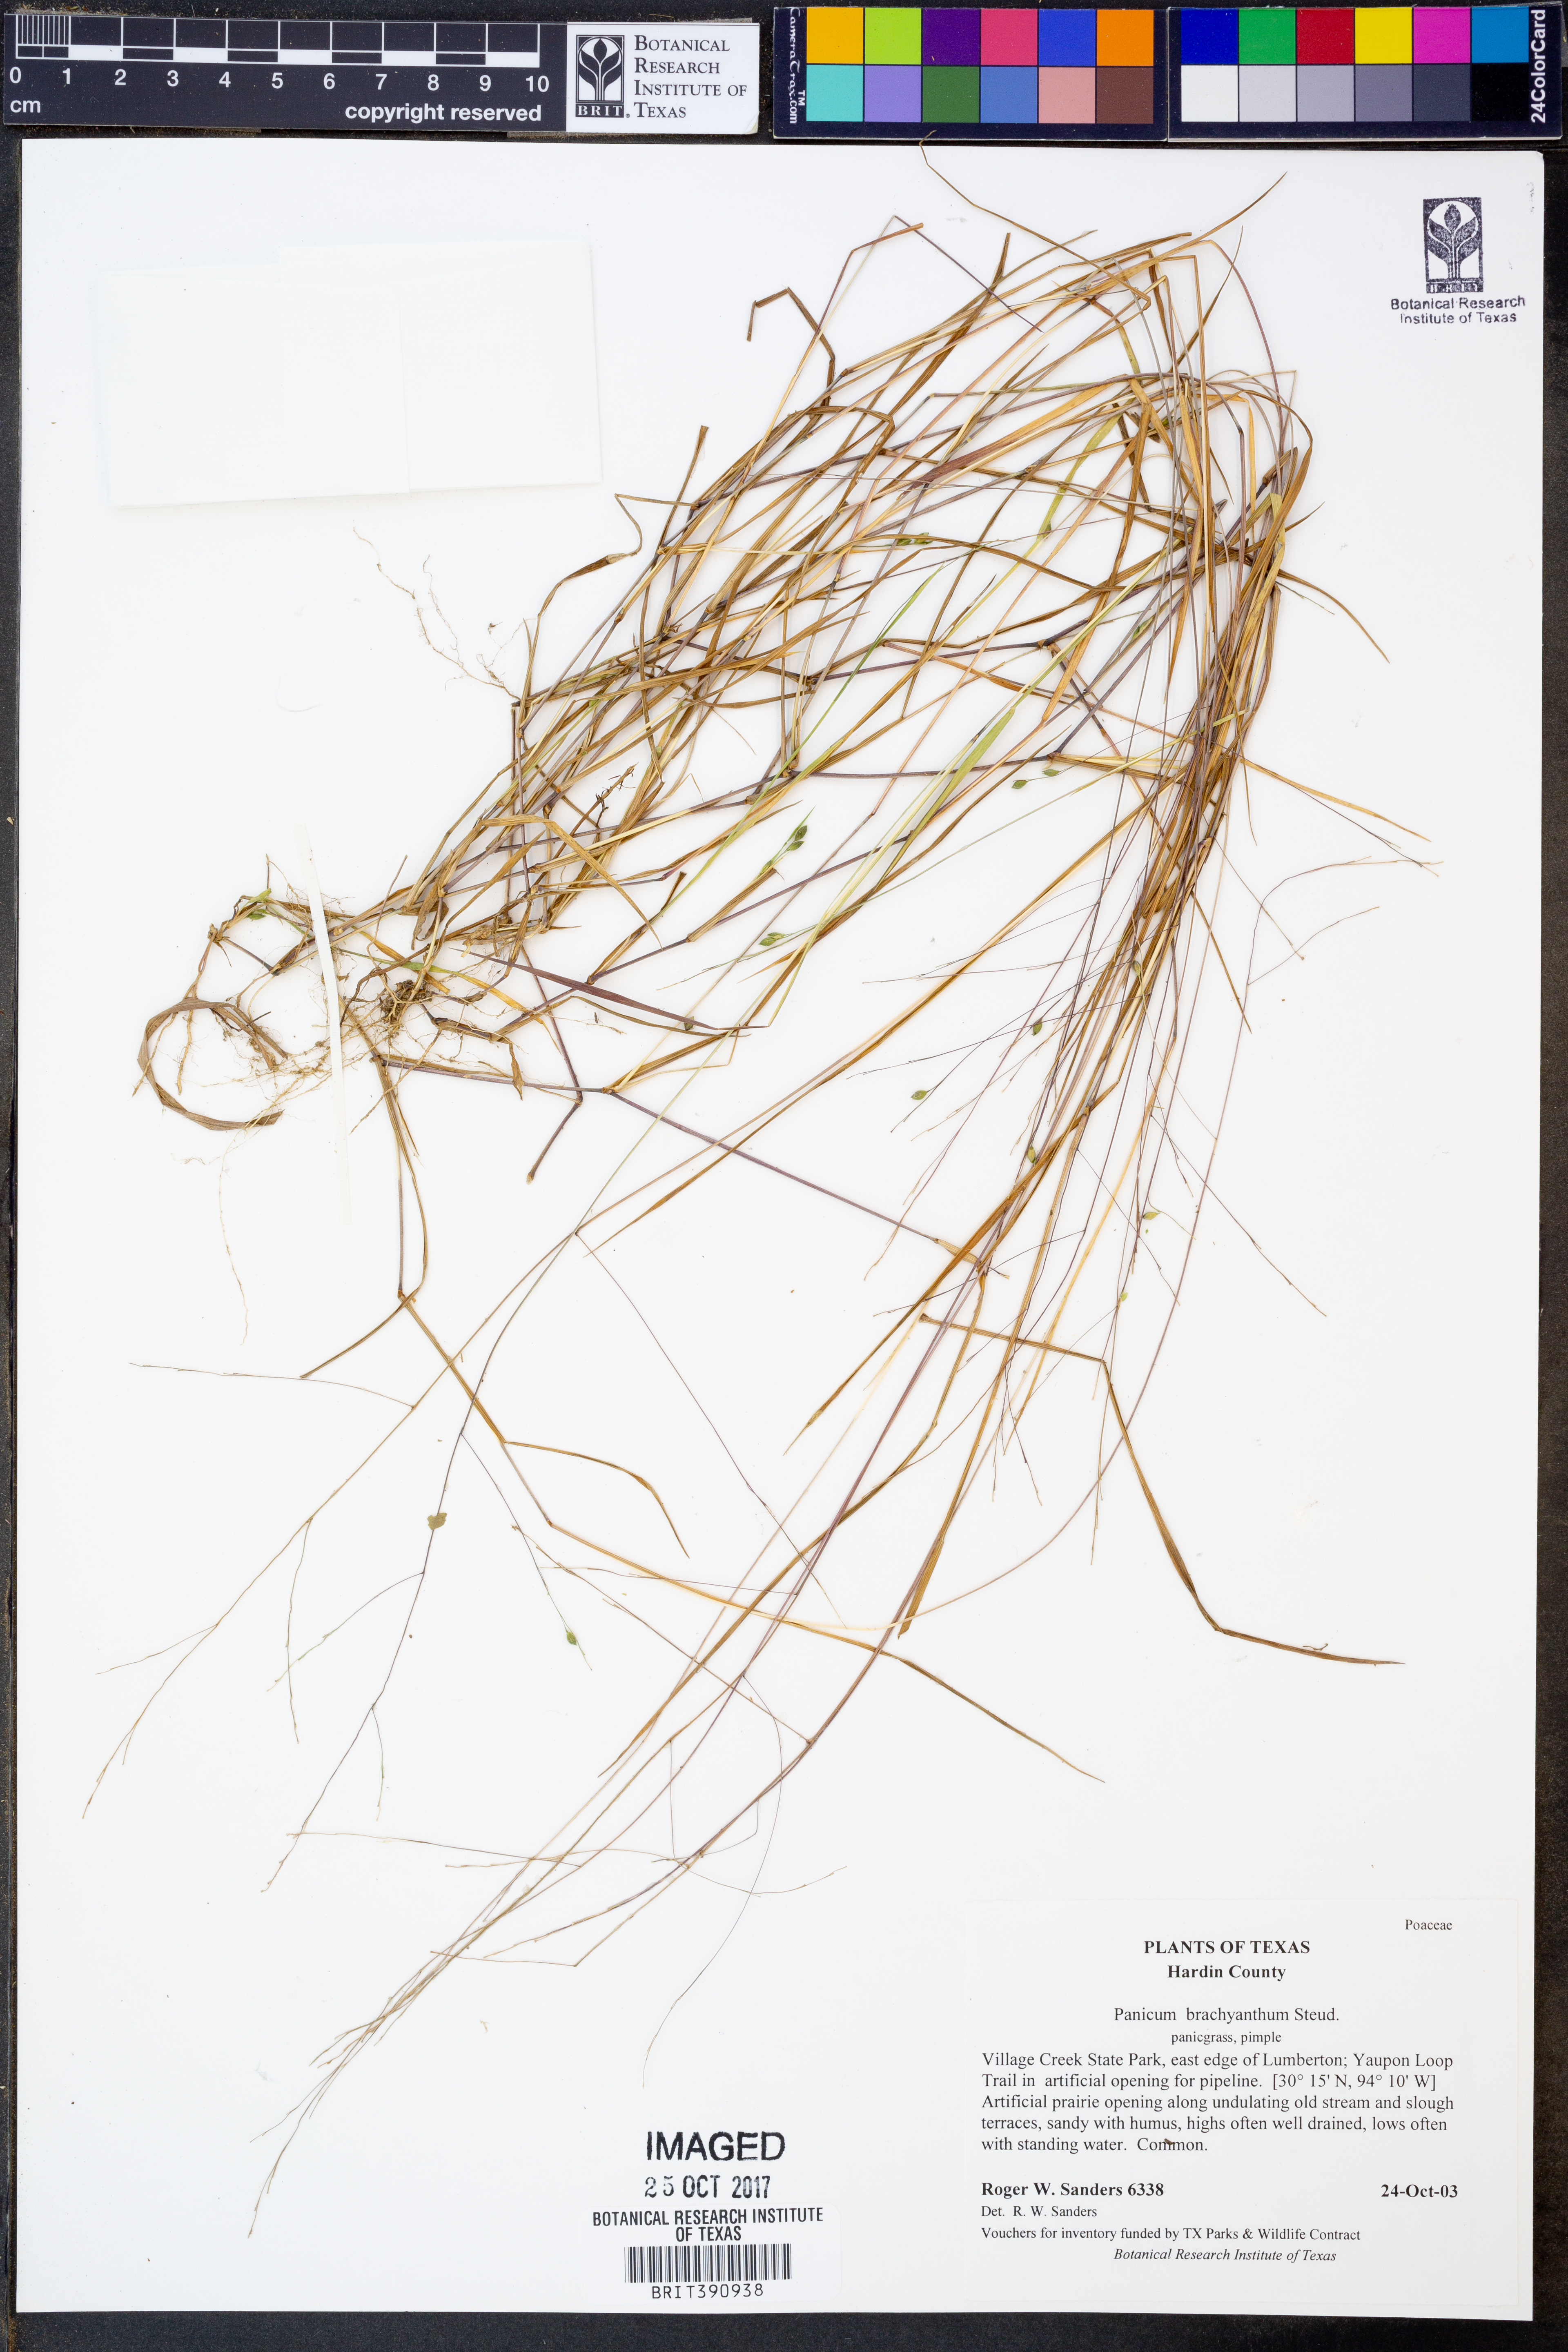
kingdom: Plantae
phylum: Tracheophyta
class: Liliopsida
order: Poales
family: Poaceae
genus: Kellochloa
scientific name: Kellochloa brachyantha
